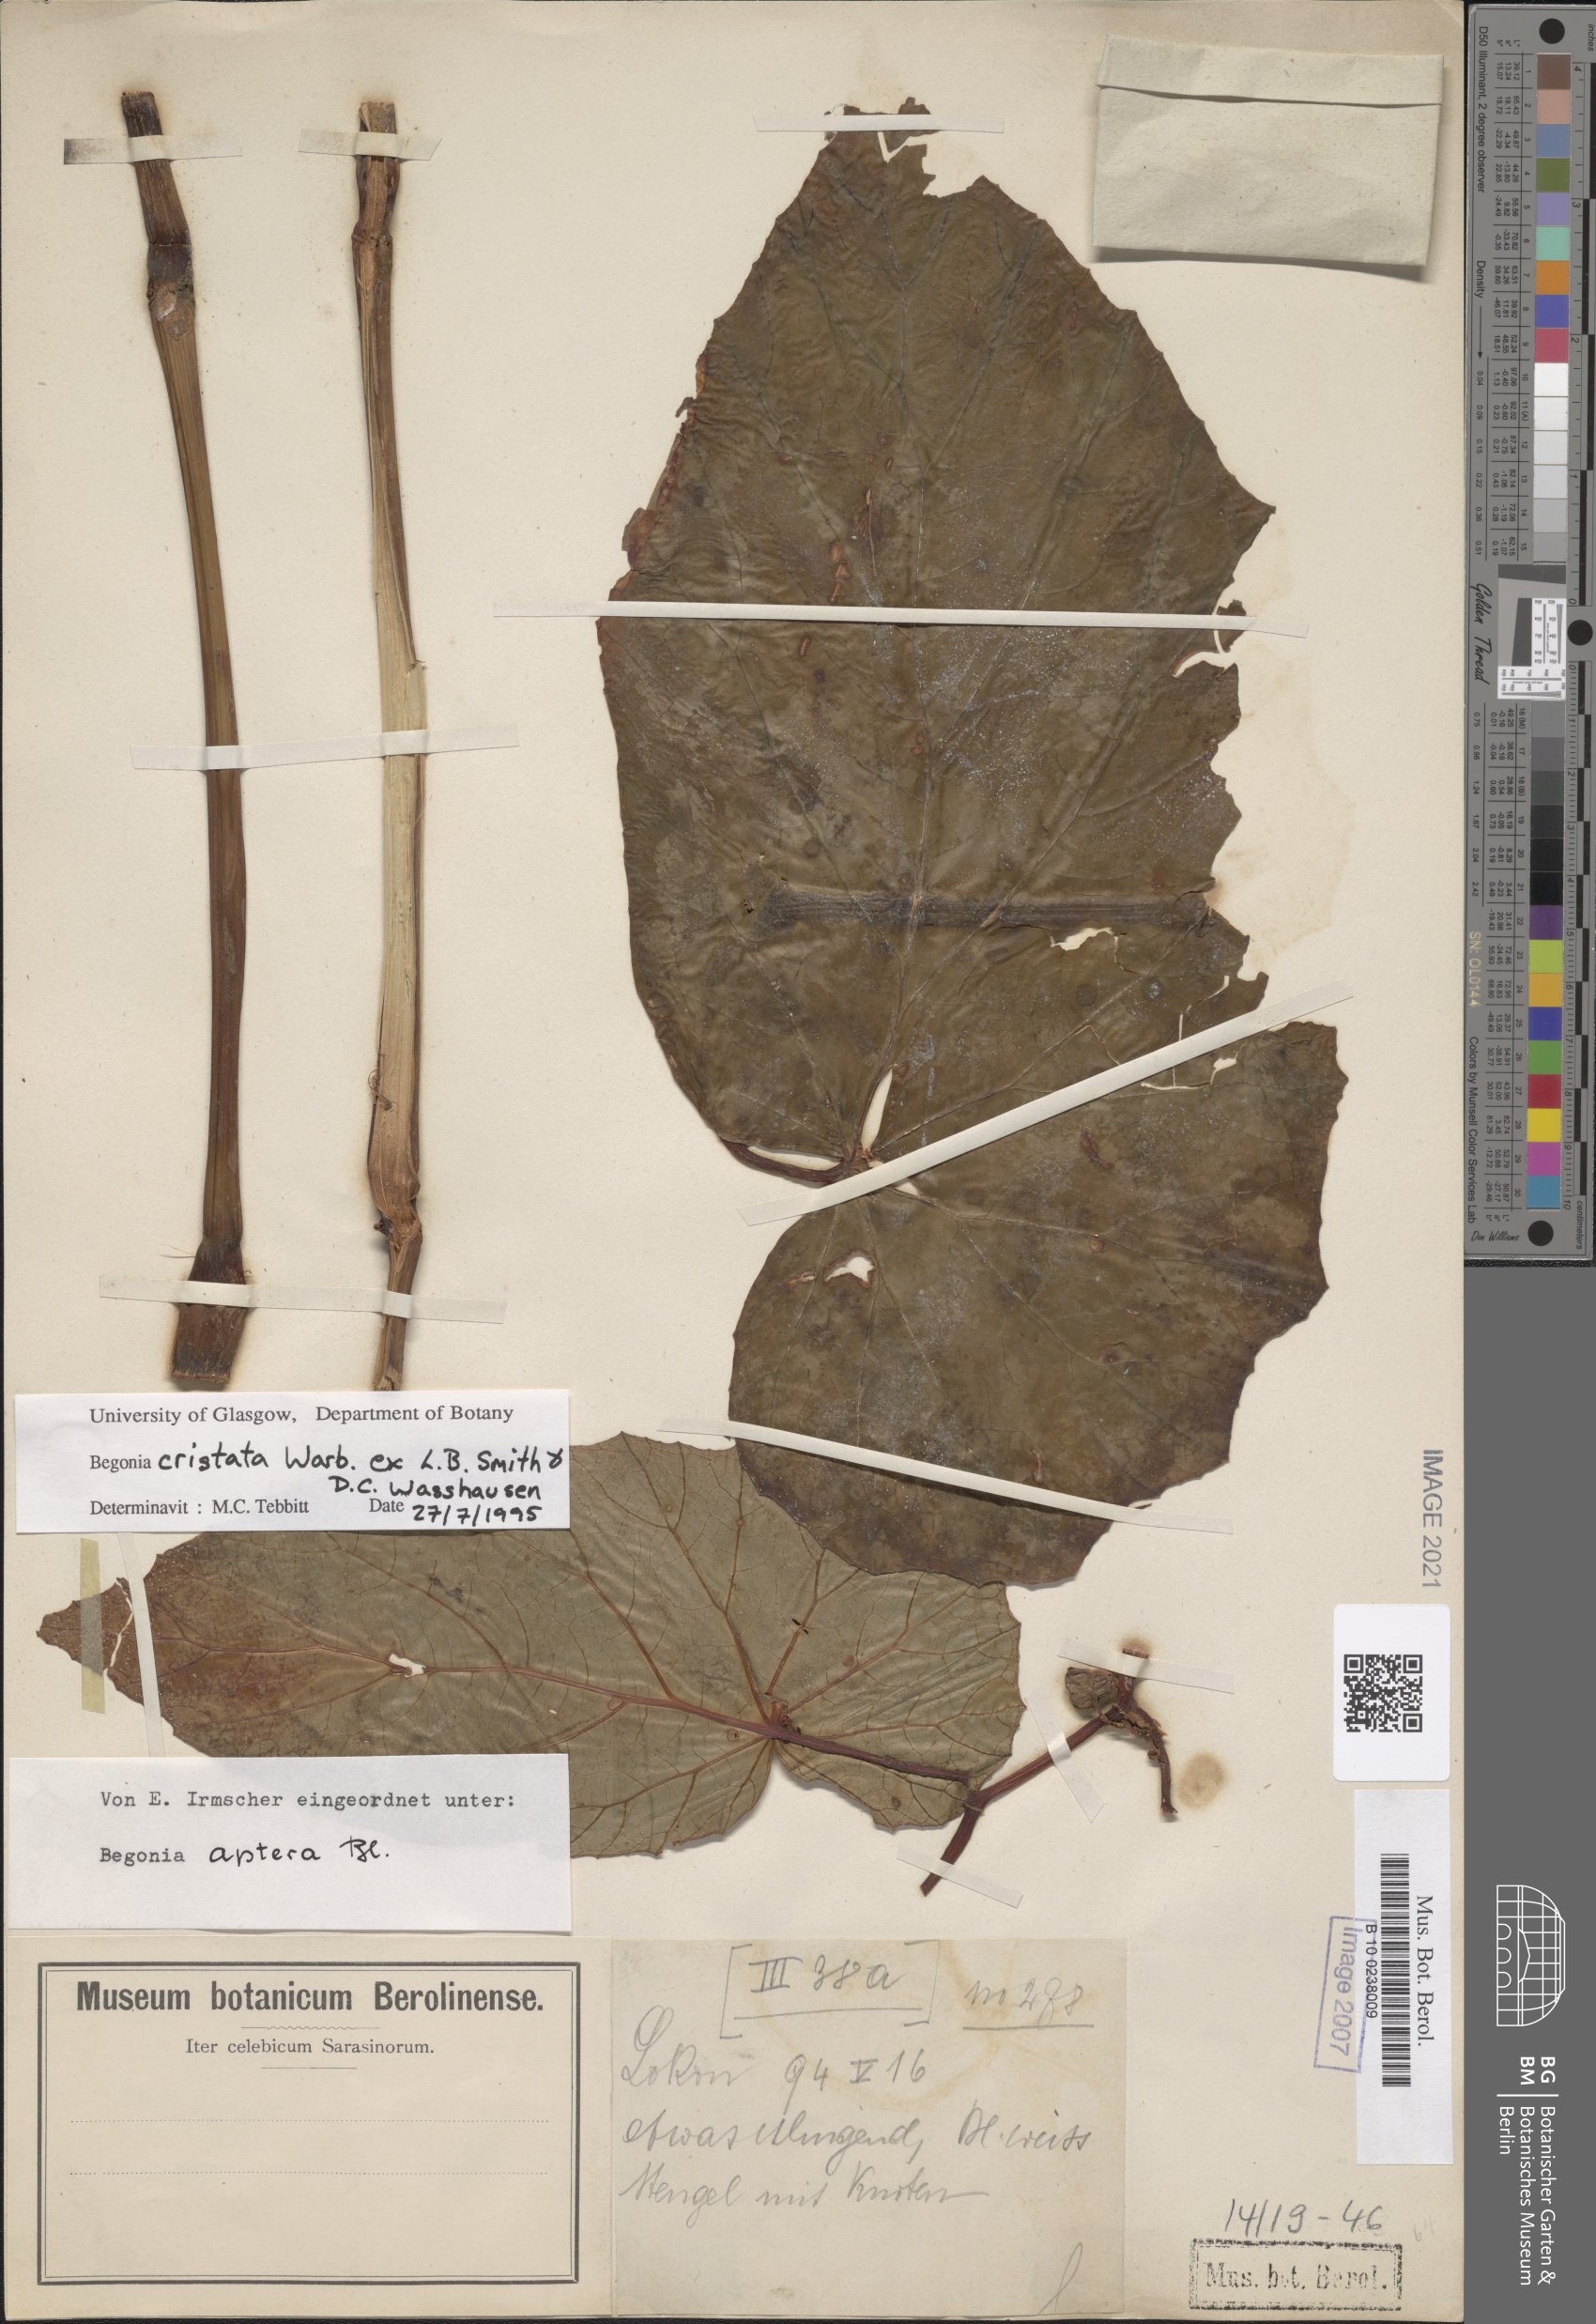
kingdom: Plantae
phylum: Tracheophyta
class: Magnoliopsida
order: Cucurbitales
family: Begoniaceae
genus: Begonia
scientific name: Begonia aptera
